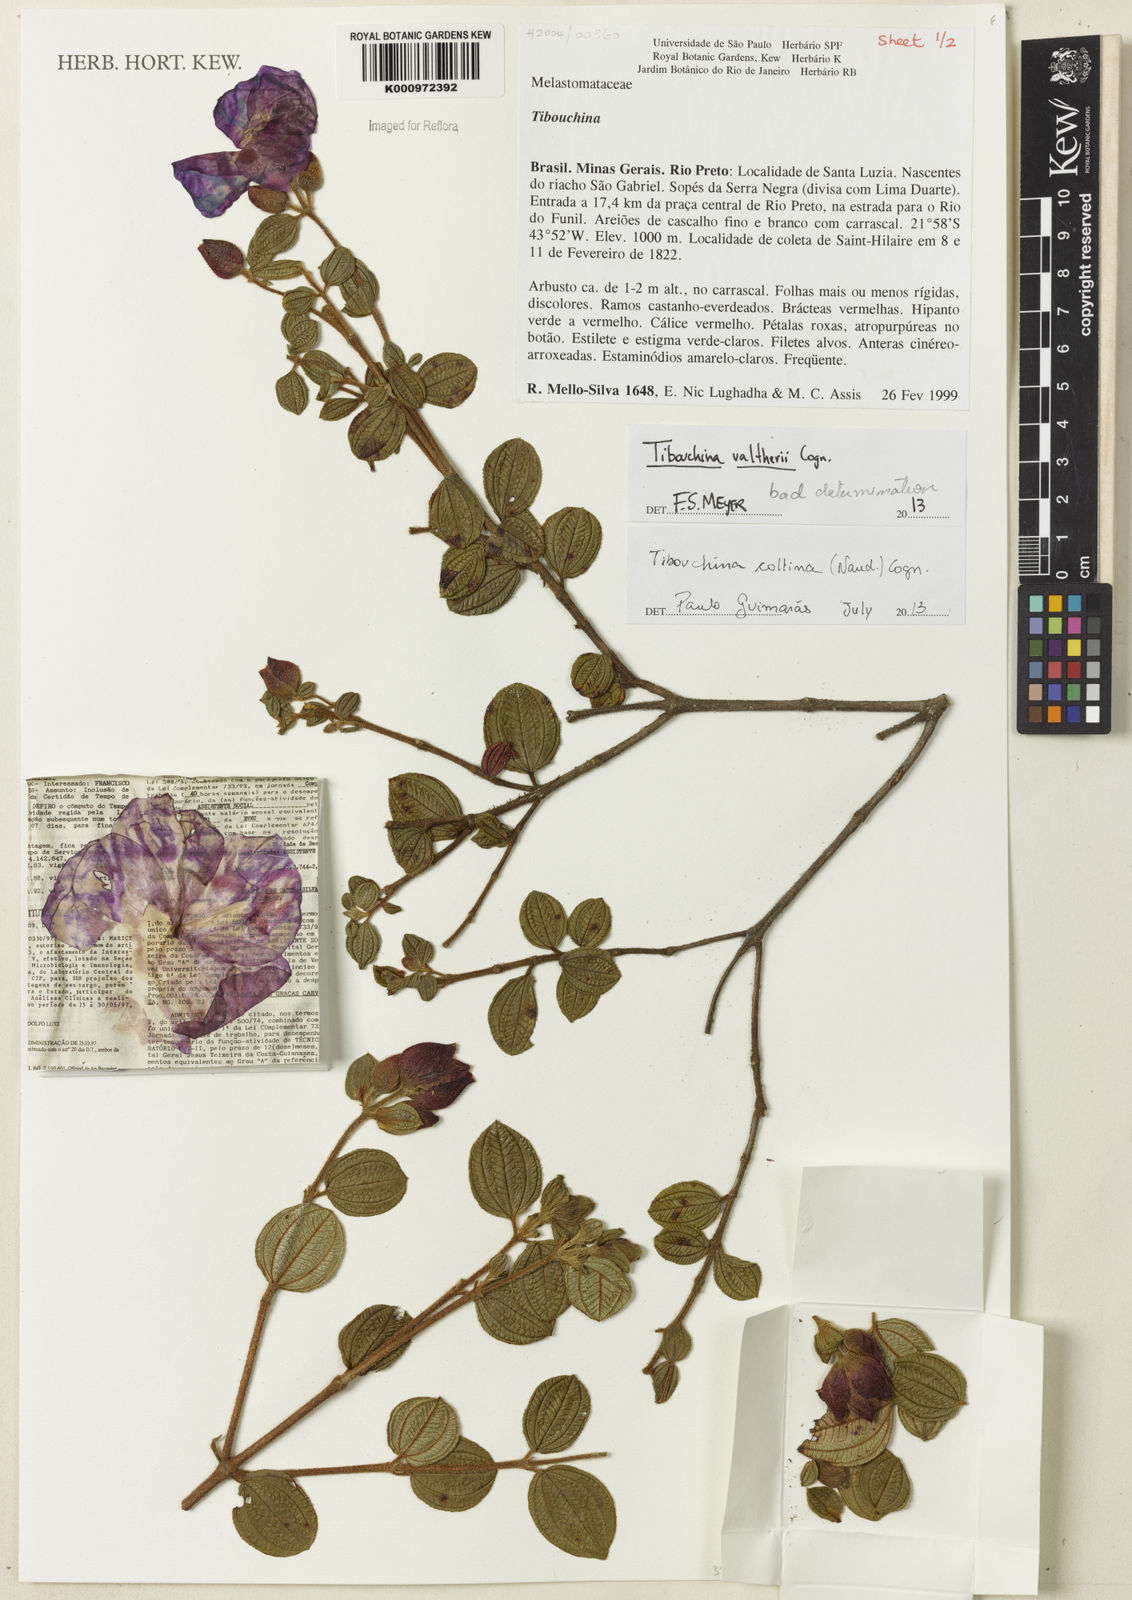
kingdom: Plantae
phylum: Tracheophyta
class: Magnoliopsida
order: Myrtales
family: Melastomataceae
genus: Pleroma
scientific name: Pleroma collinum
